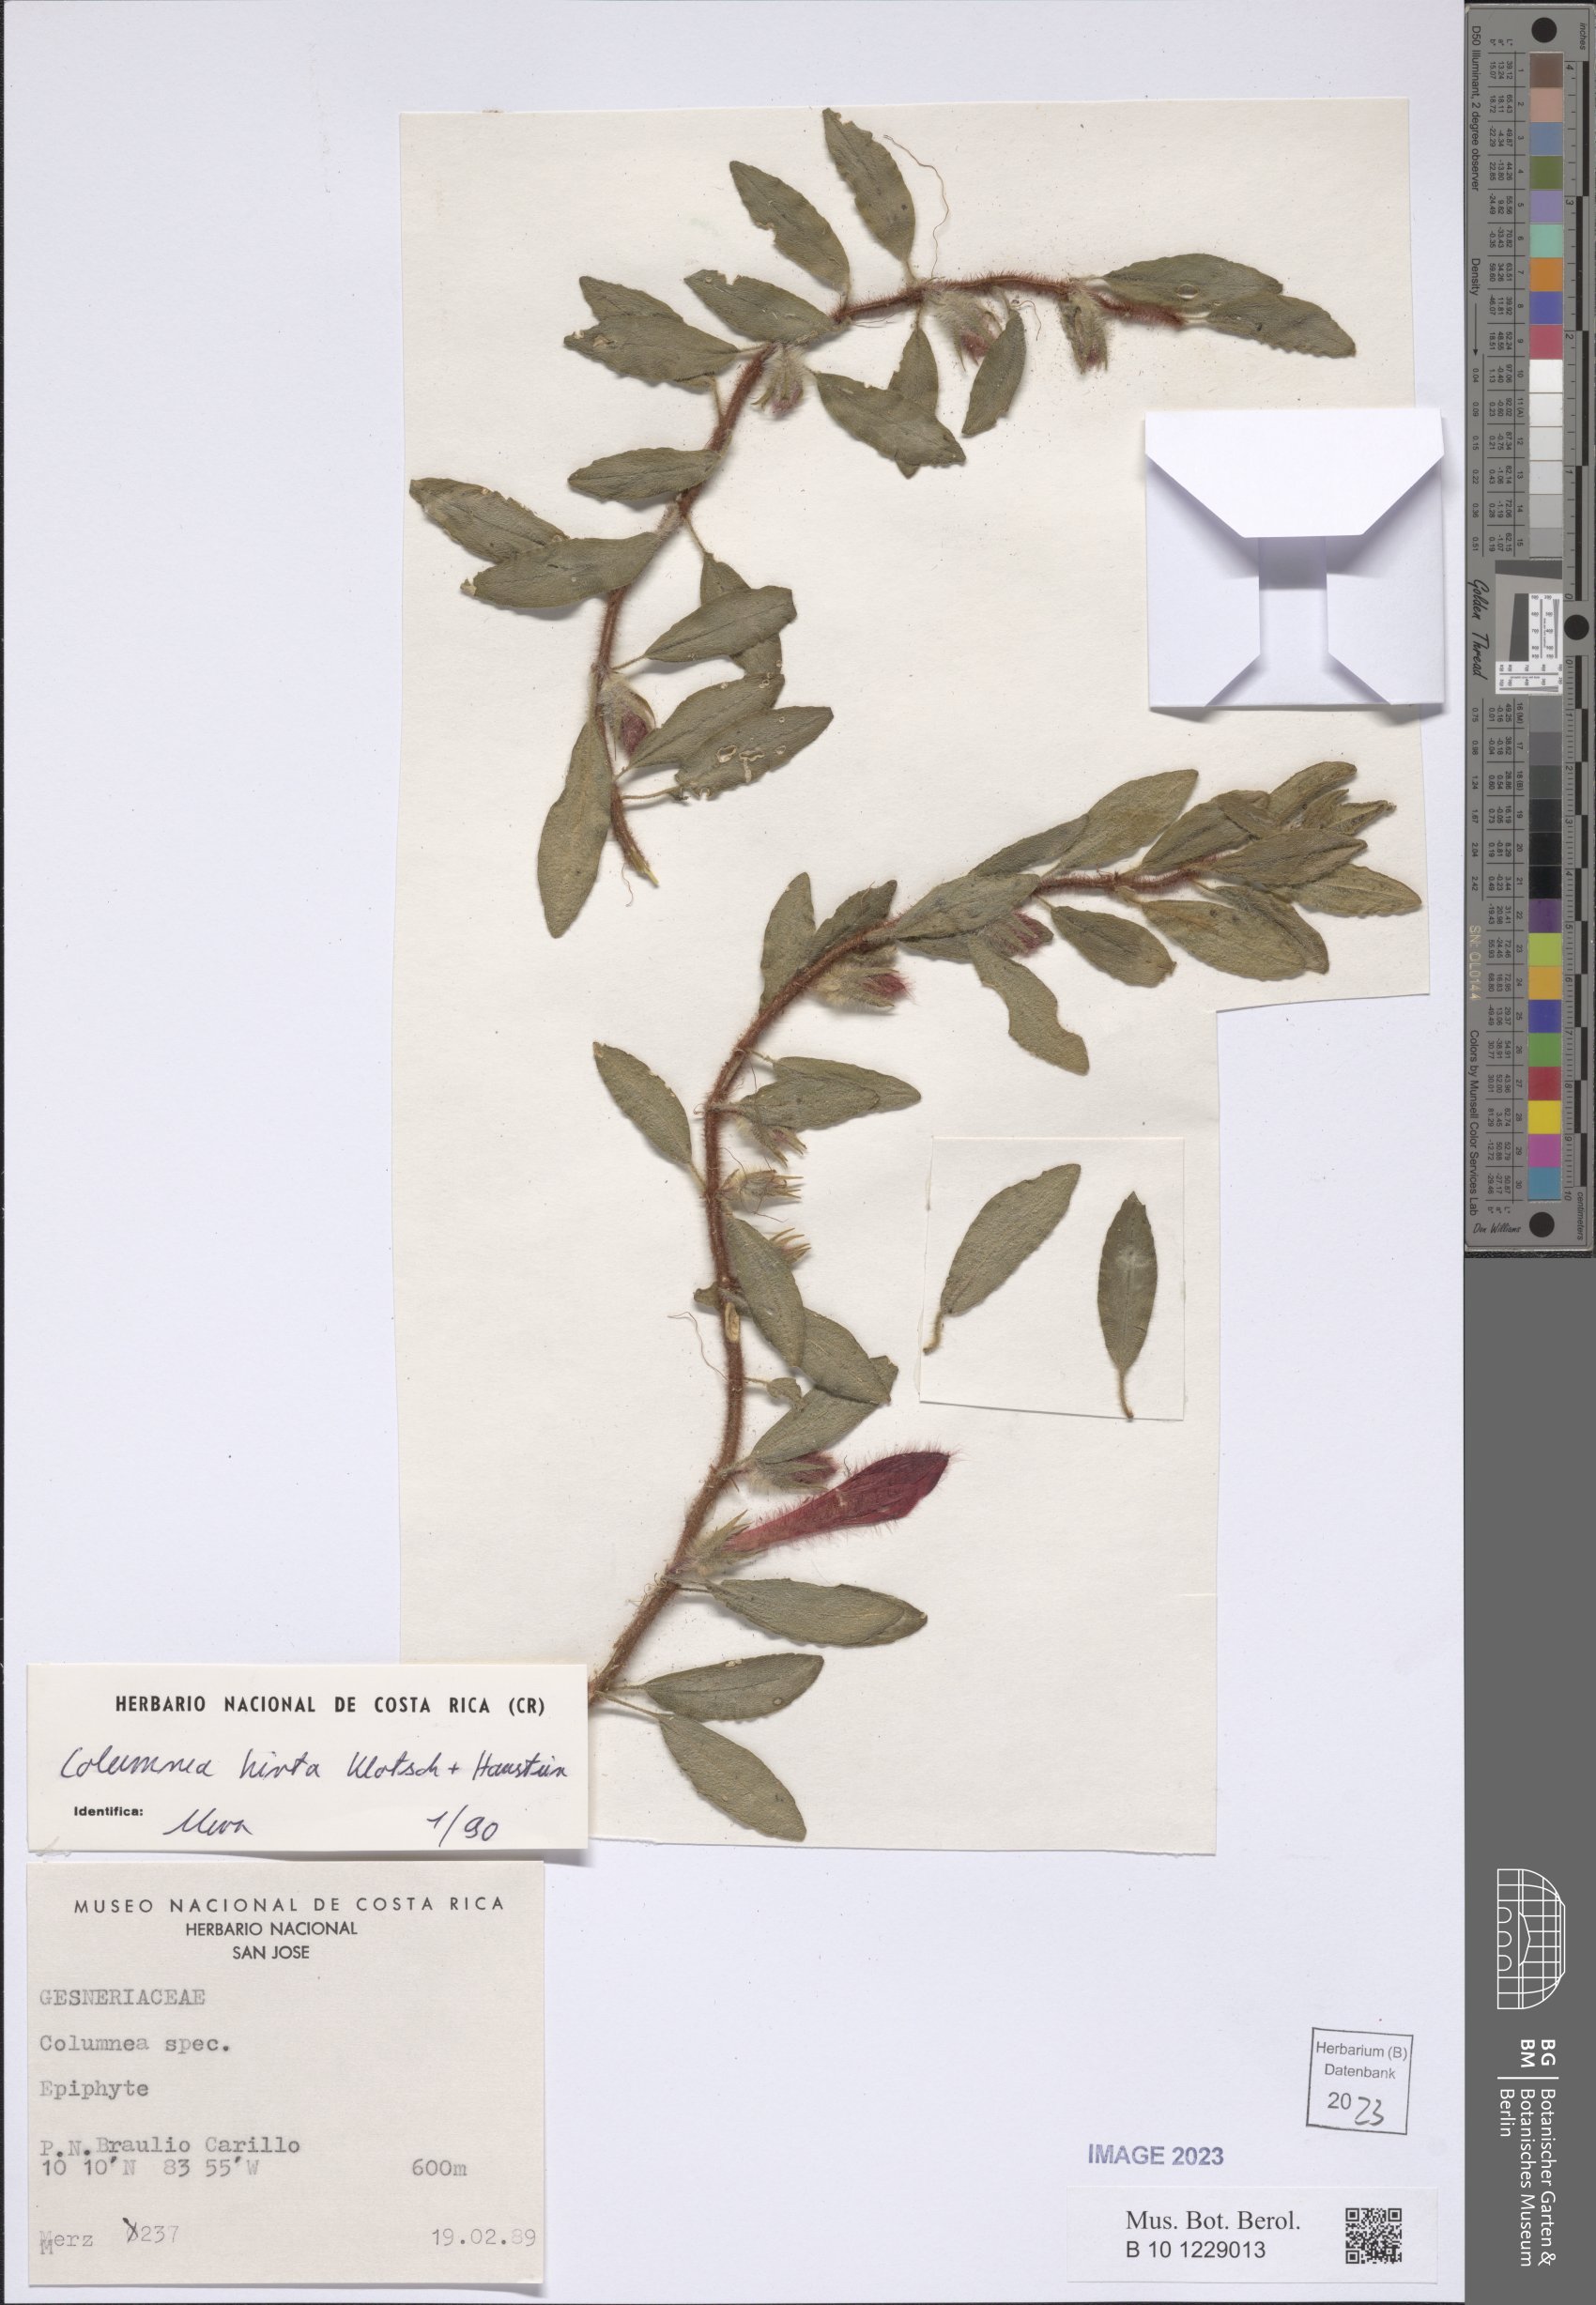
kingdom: Plantae
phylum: Tracheophyta
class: Magnoliopsida
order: Lamiales
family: Gesneriaceae
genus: Columnea
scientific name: Columnea hirta
